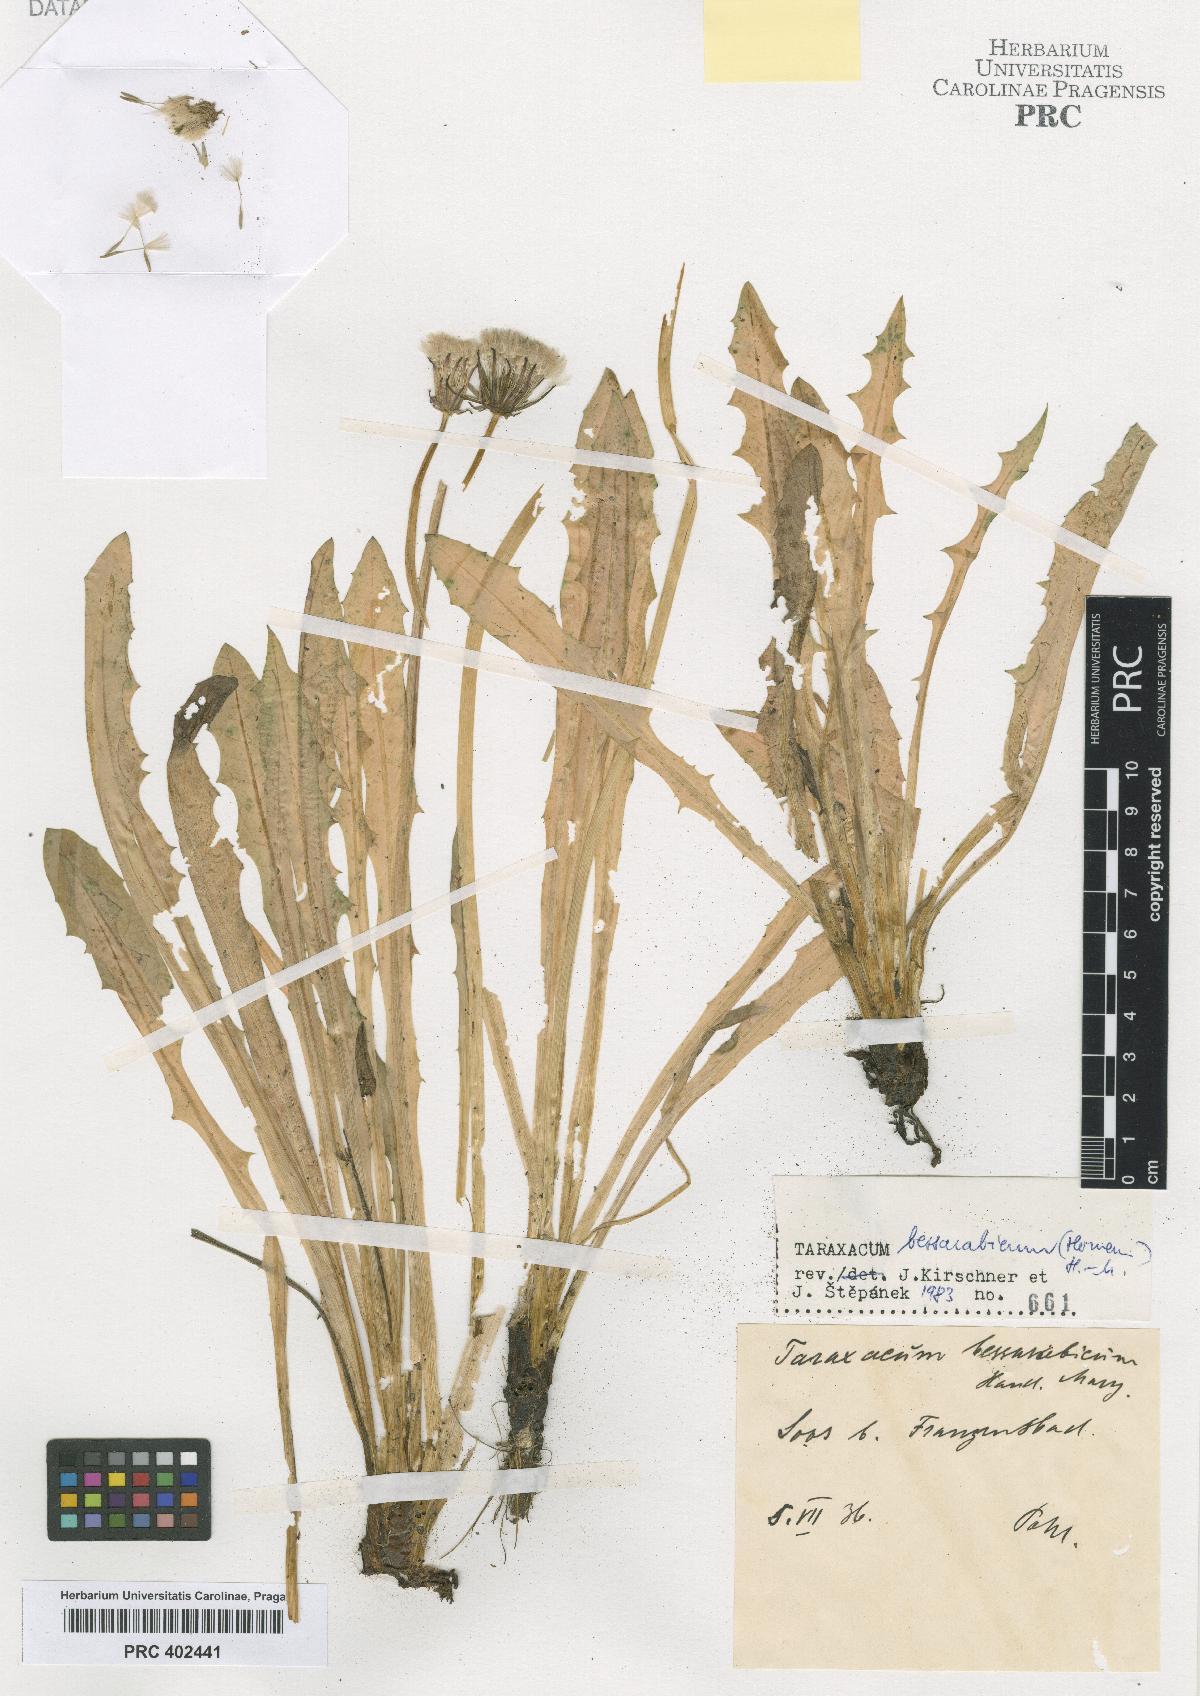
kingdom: Plantae
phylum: Tracheophyta
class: Magnoliopsida
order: Asterales
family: Asteraceae
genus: Taraxacum
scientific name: Taraxacum bessarabicum
